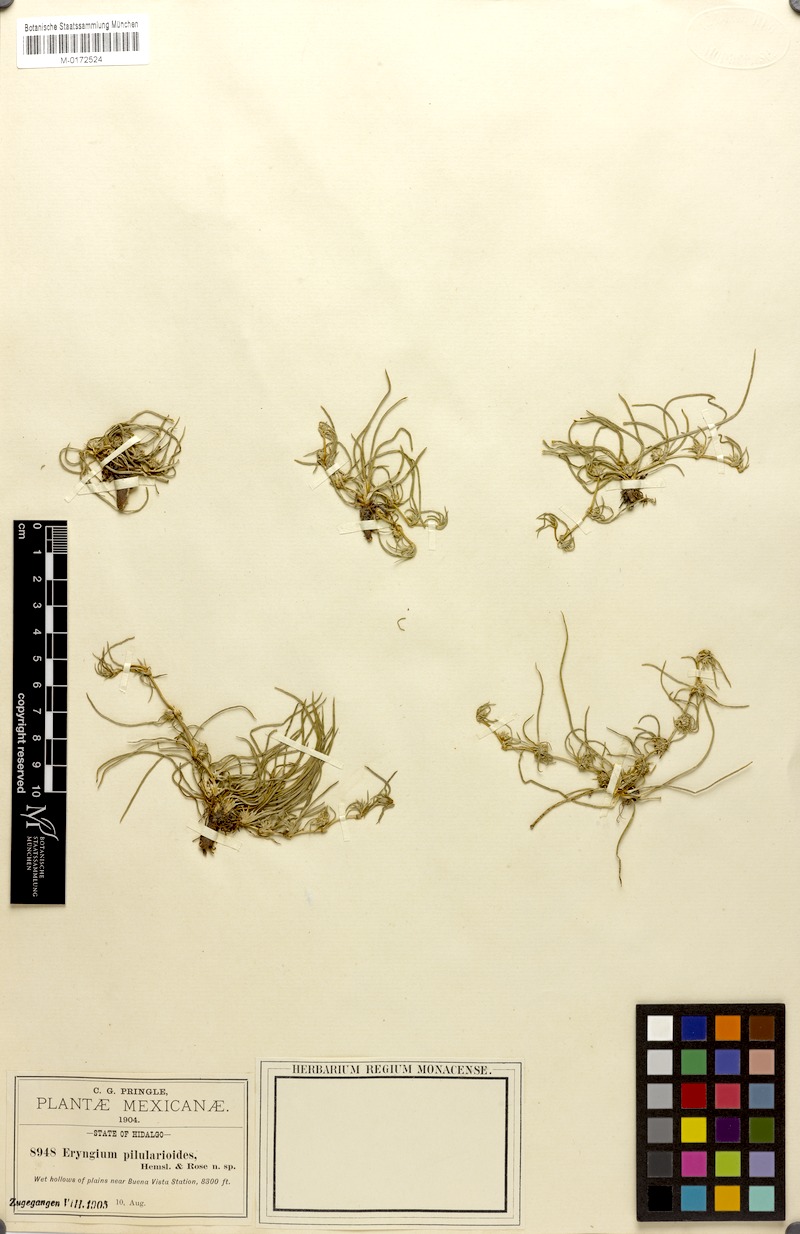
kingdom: Plantae
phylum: Tracheophyta
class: Magnoliopsida
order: Apiales
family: Apiaceae
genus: Eryngium
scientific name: Eryngium pilularioides
